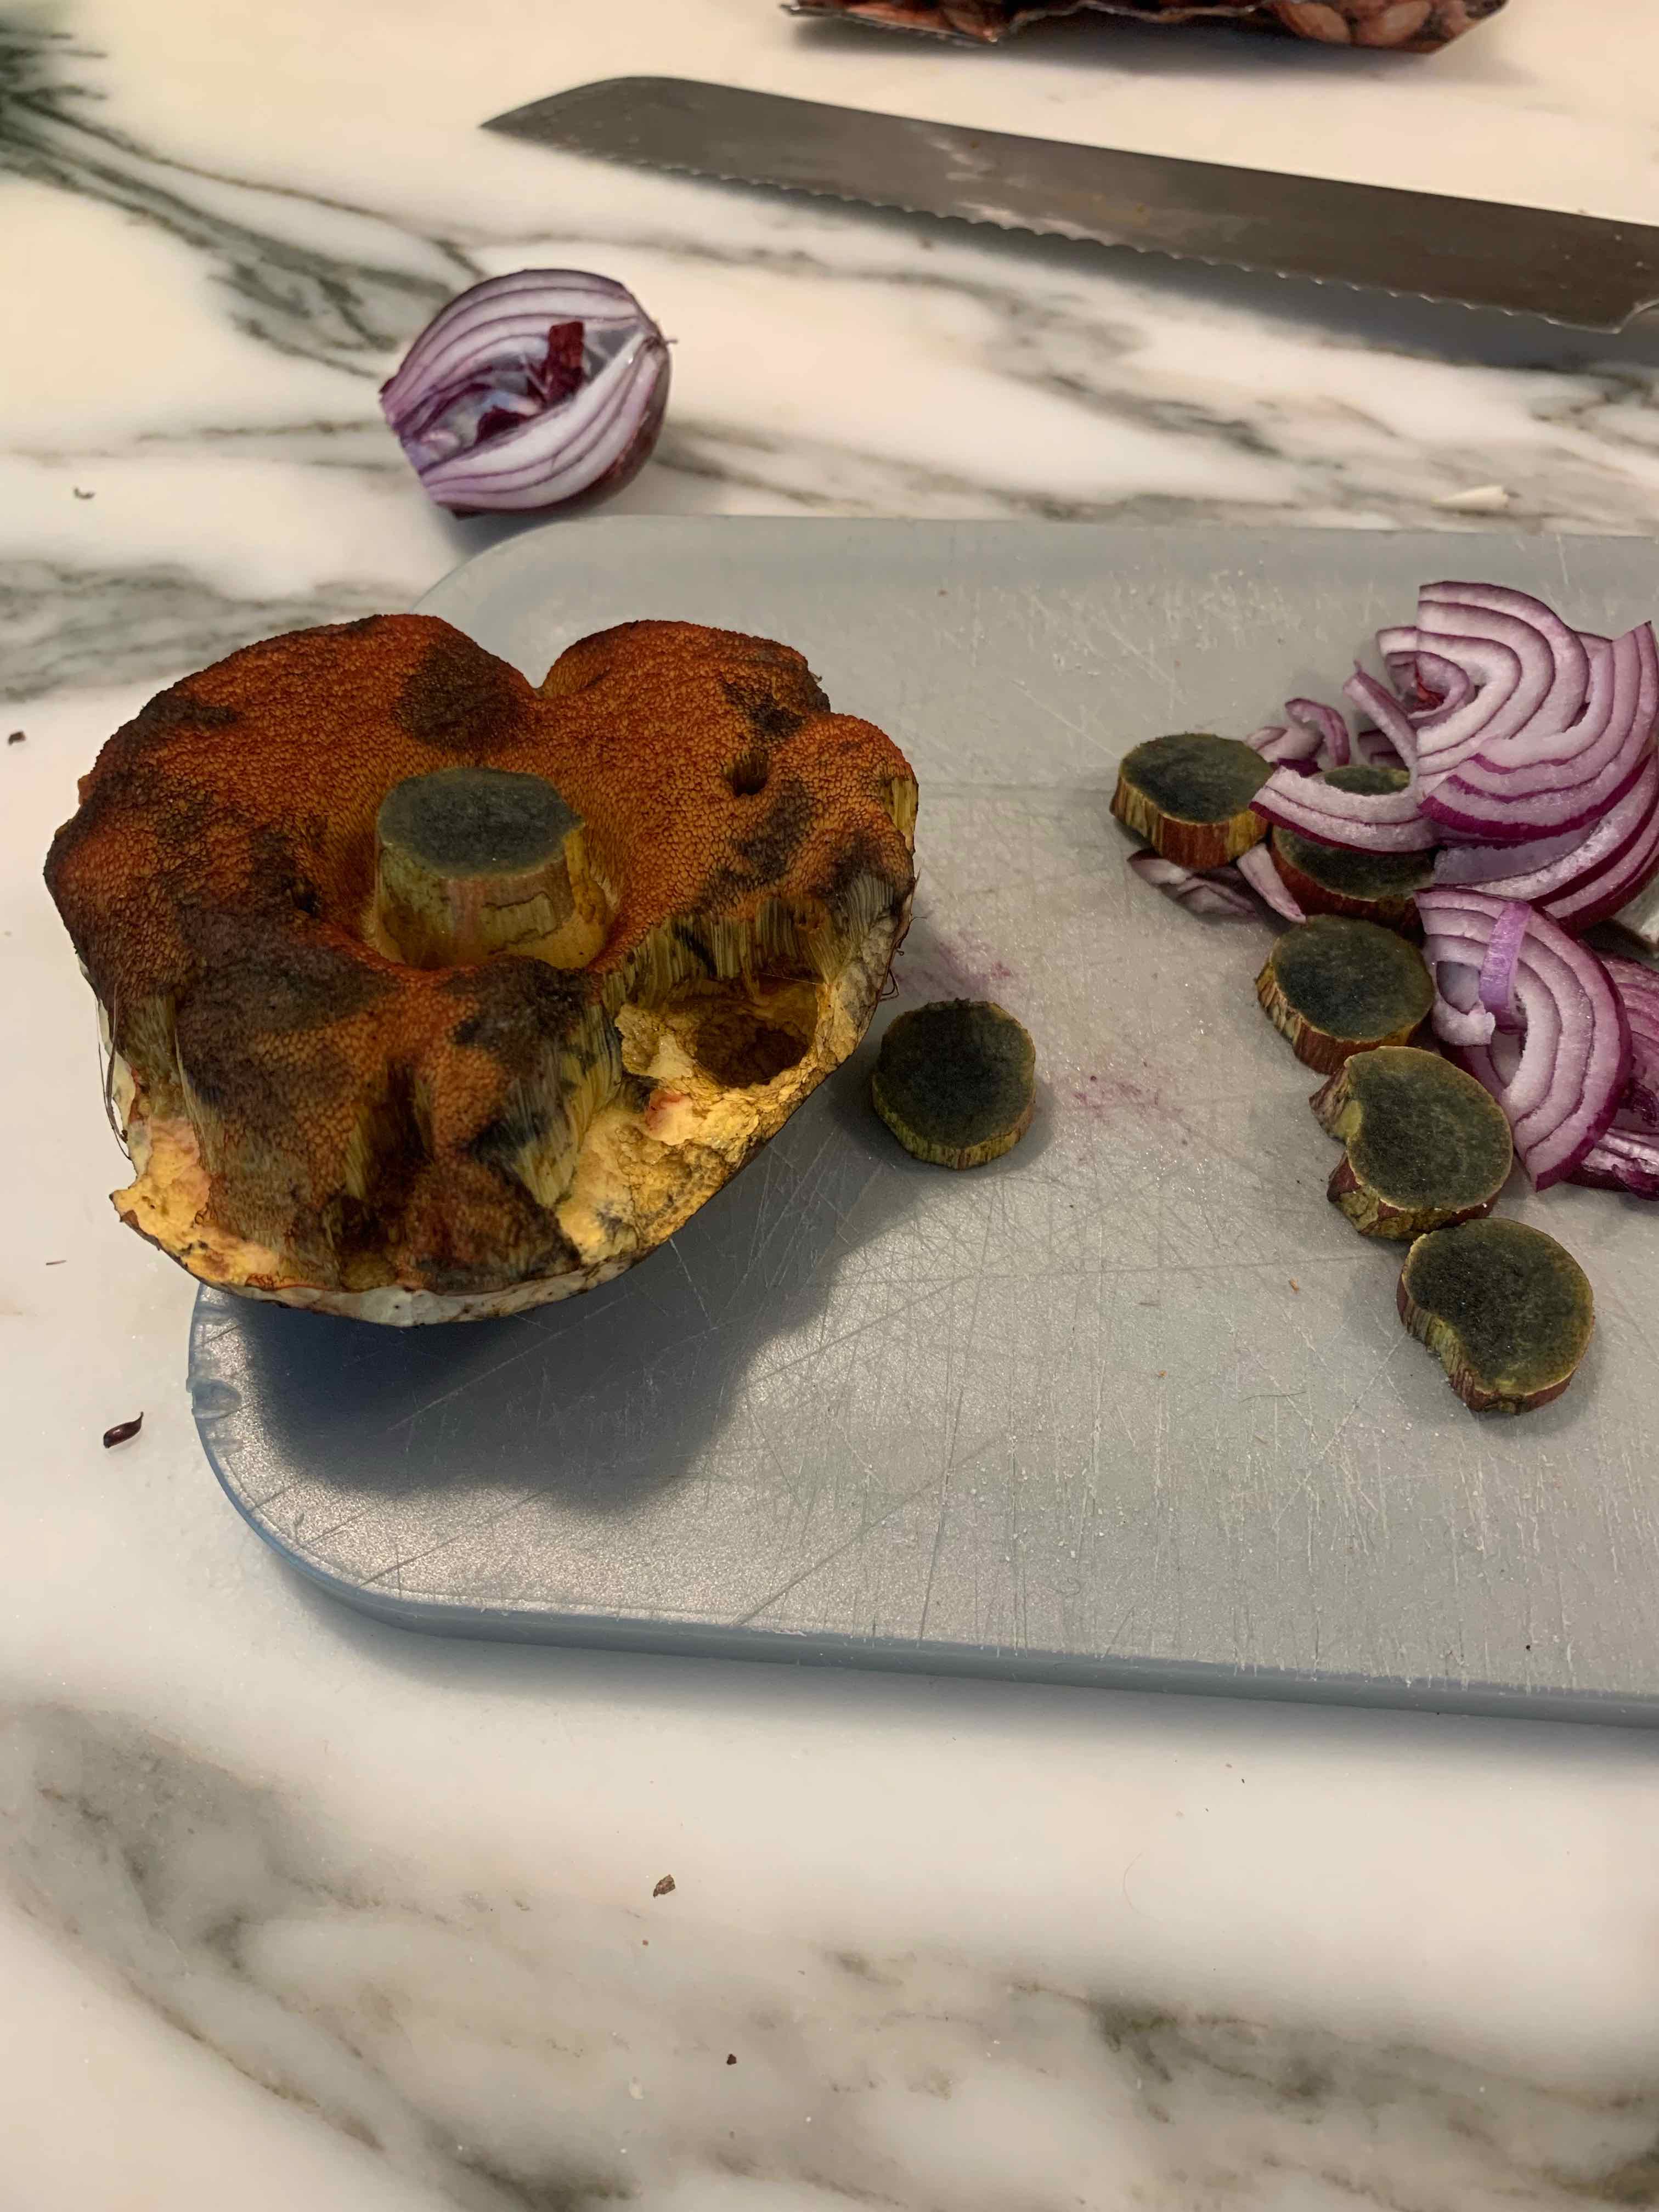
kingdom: Fungi
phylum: Basidiomycota
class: Agaricomycetes
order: Boletales
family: Boletaceae
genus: Caloboletus
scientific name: Caloboletus calopus
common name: skønfodet rørhat
